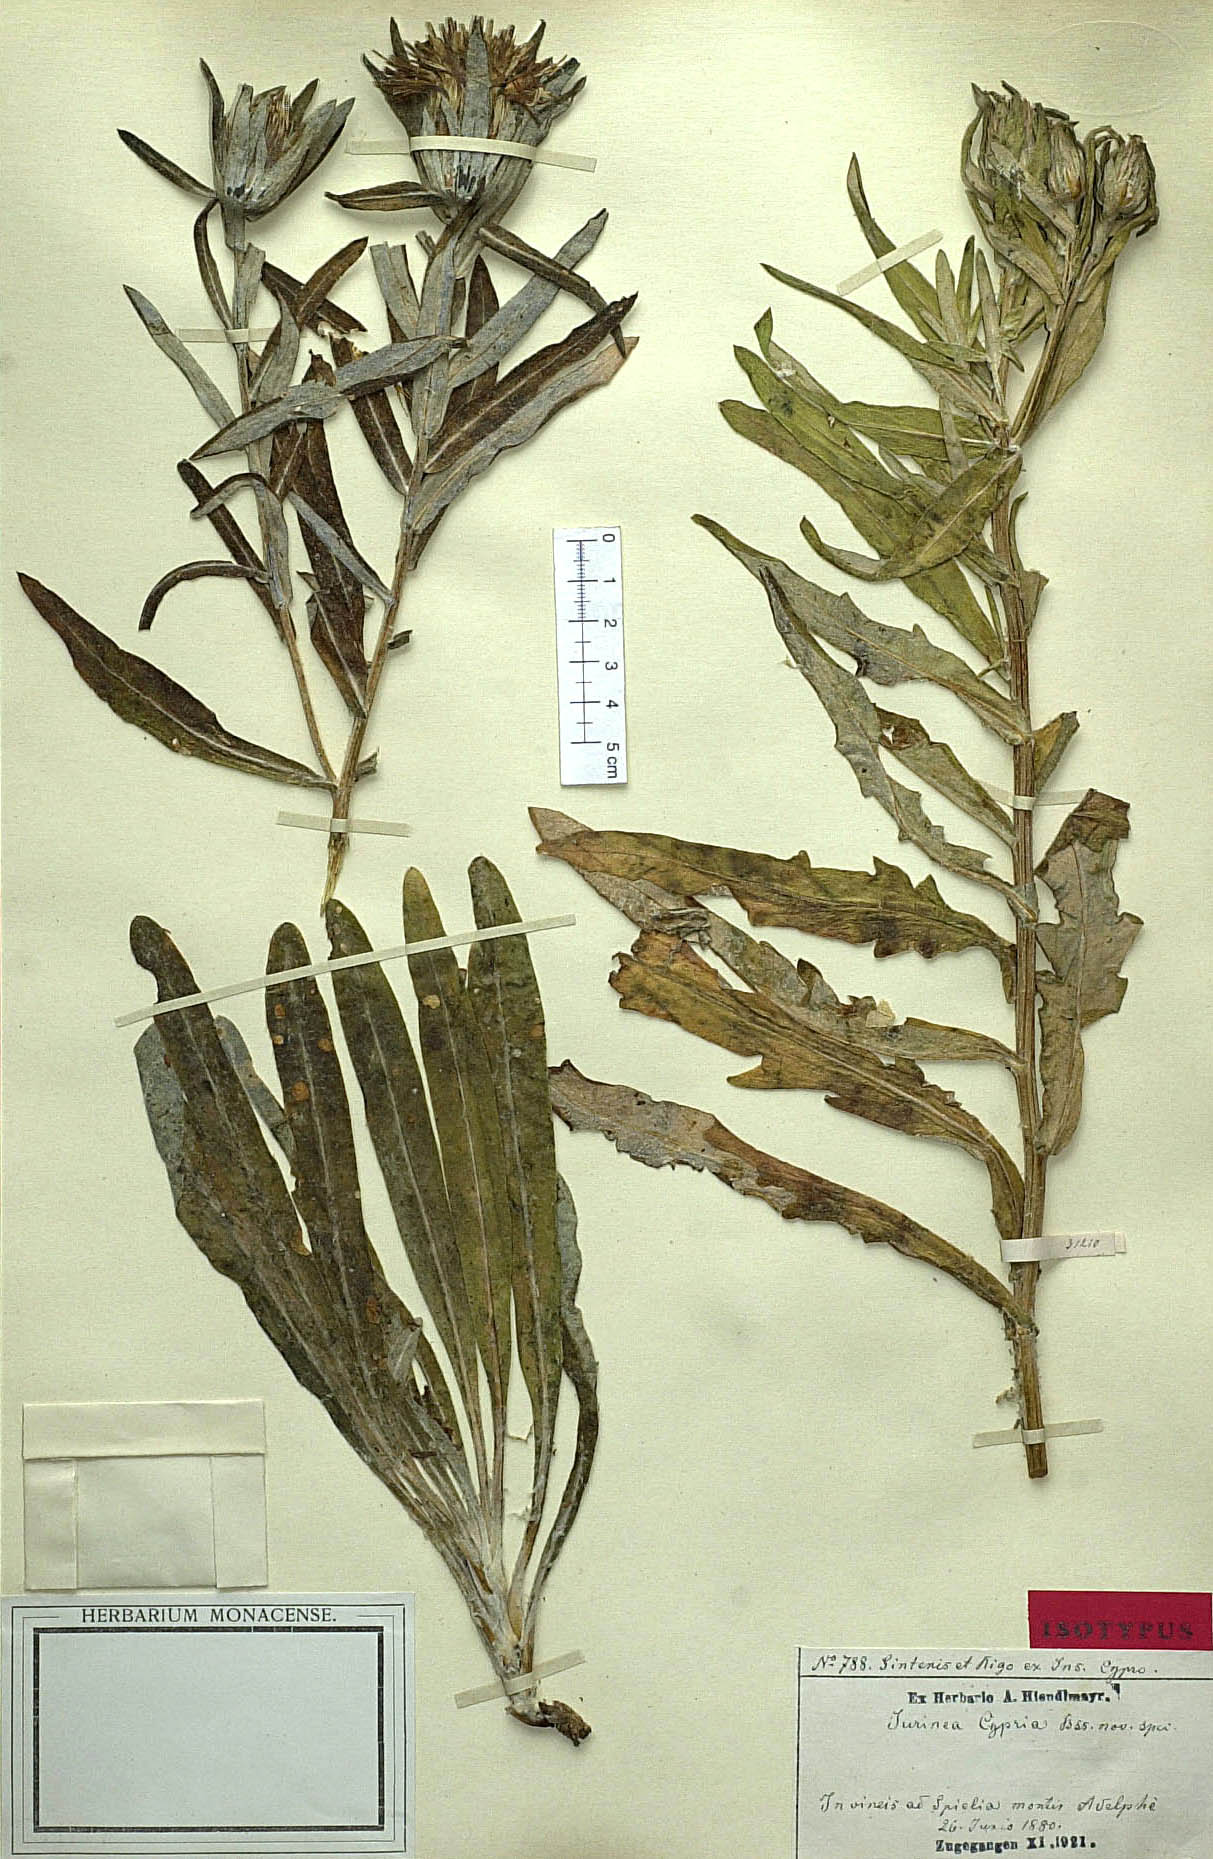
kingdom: Plantae
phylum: Tracheophyta
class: Magnoliopsida
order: Asterales
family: Asteraceae
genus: Jurinea
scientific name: Jurinea cypria
